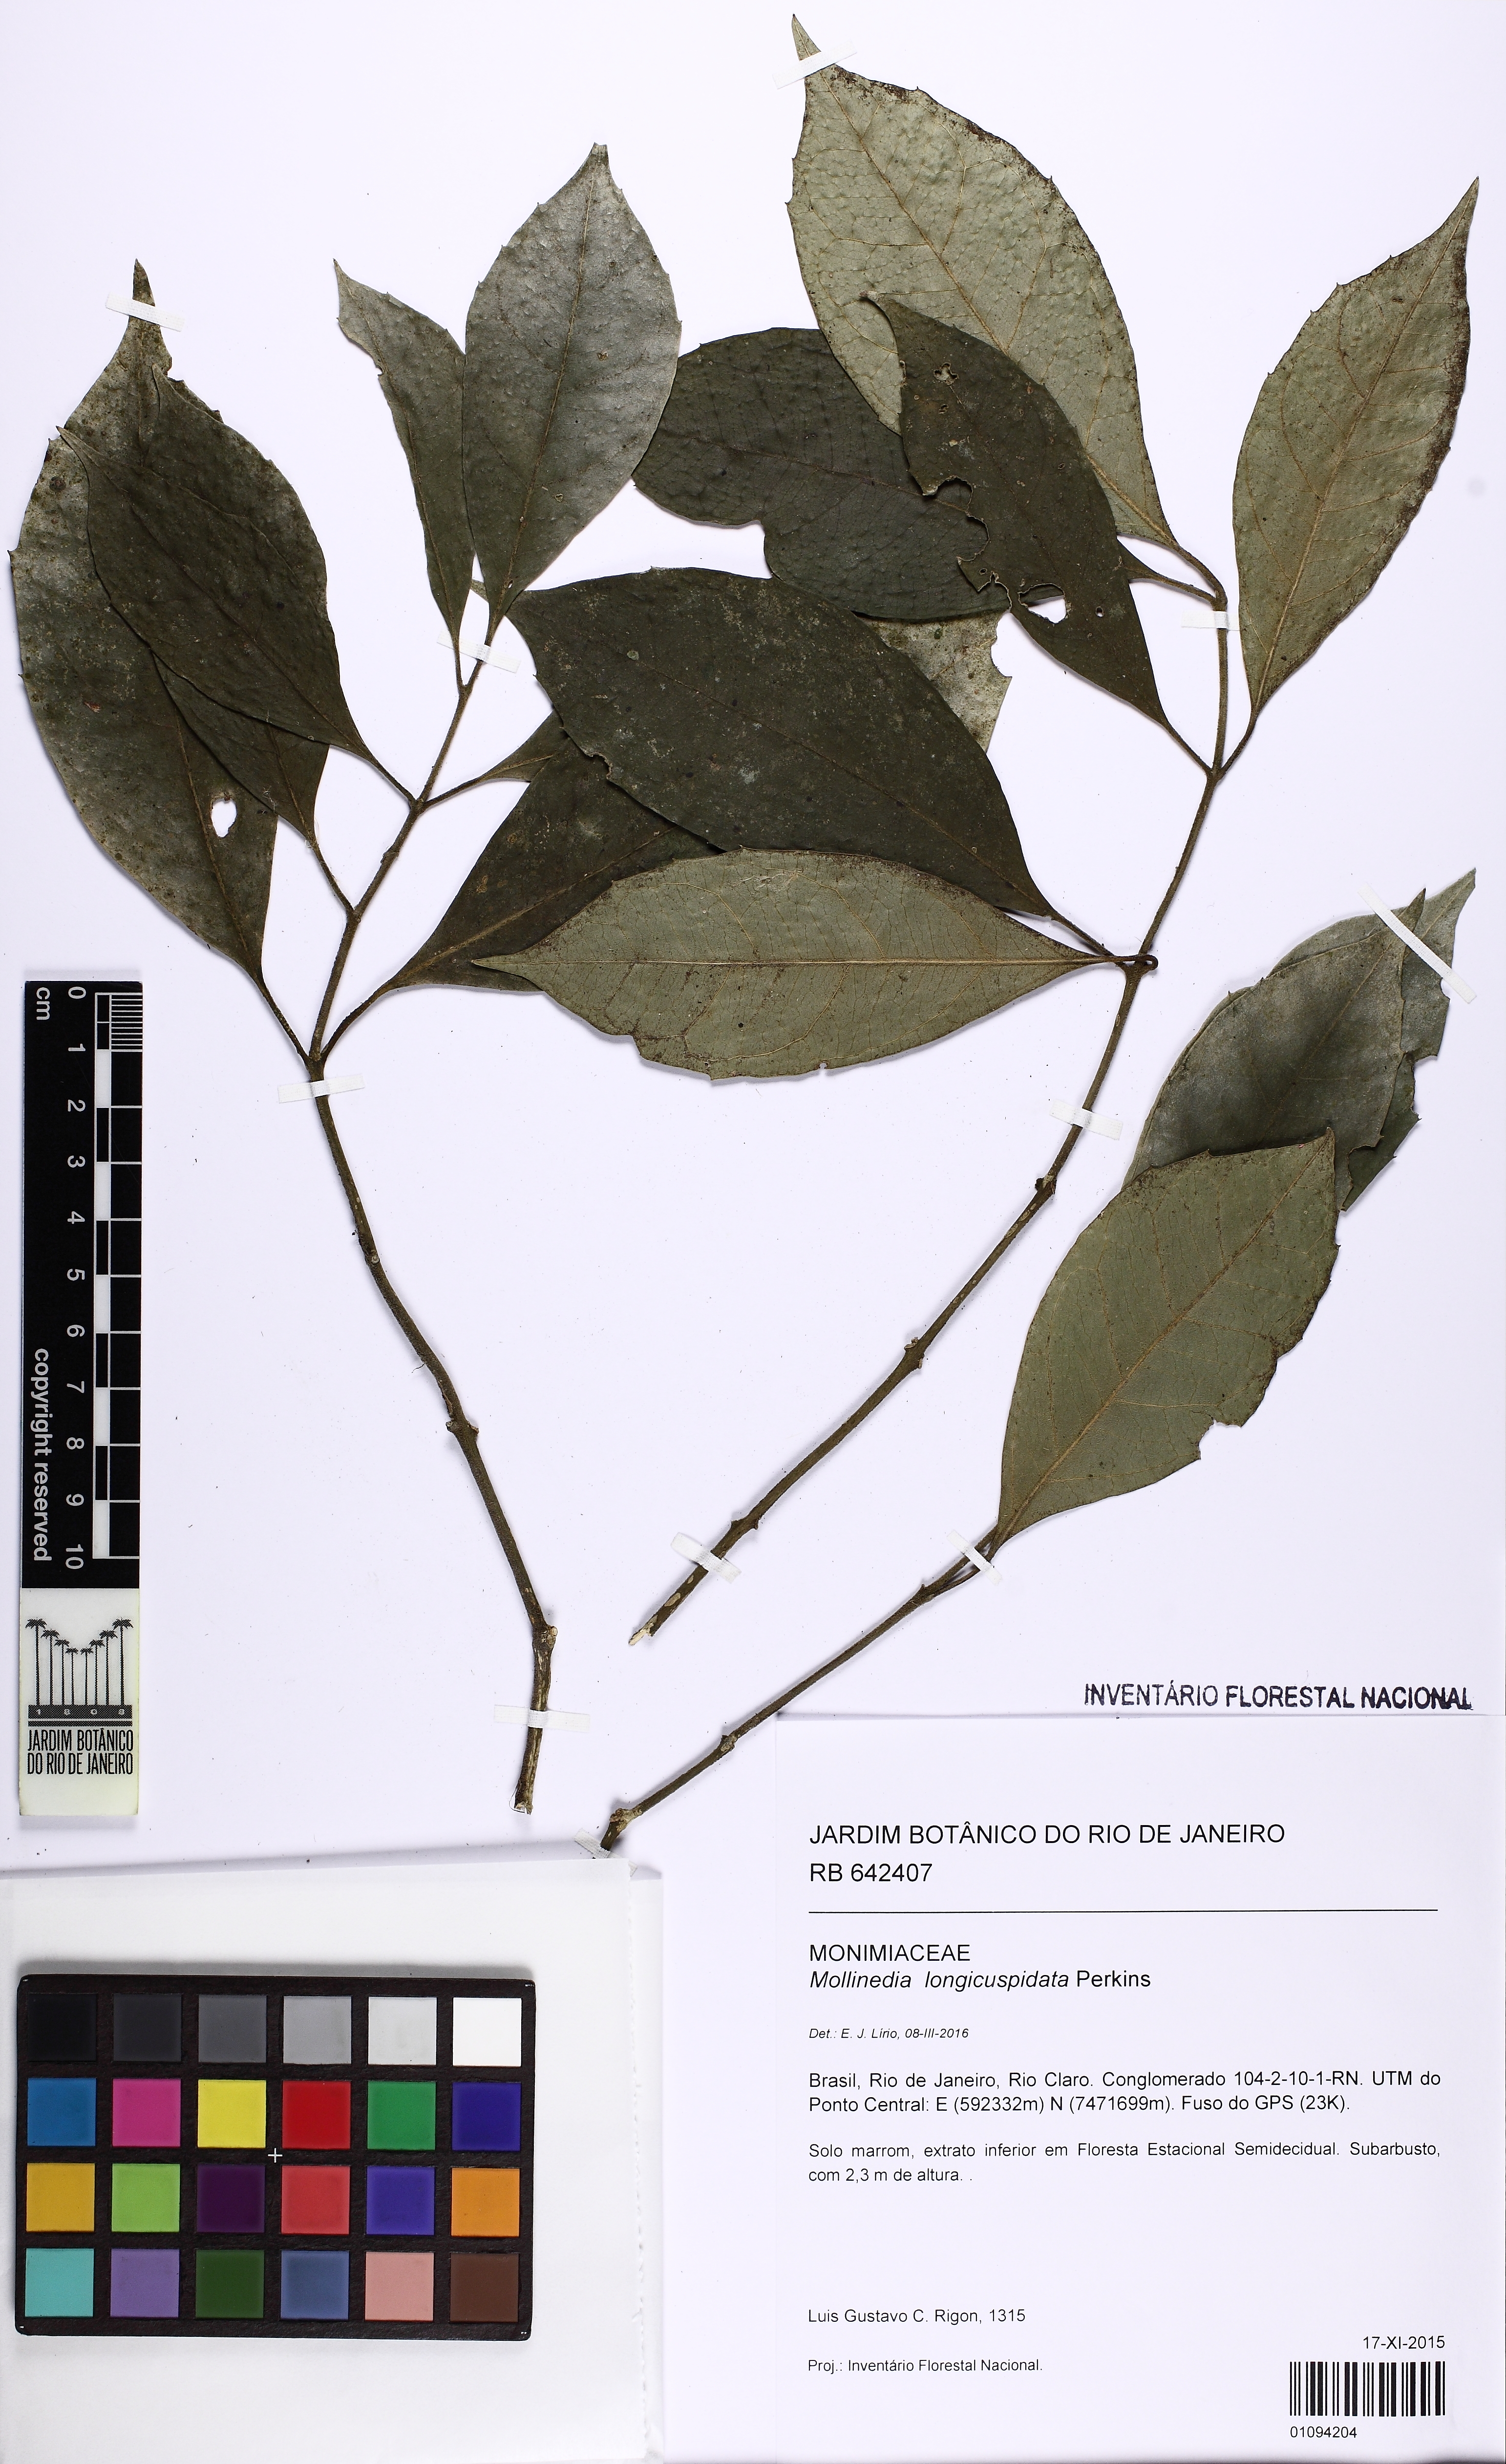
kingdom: Plantae
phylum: Tracheophyta
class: Magnoliopsida
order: Laurales
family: Monimiaceae
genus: Mollinedia
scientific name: Mollinedia longicuspidata
